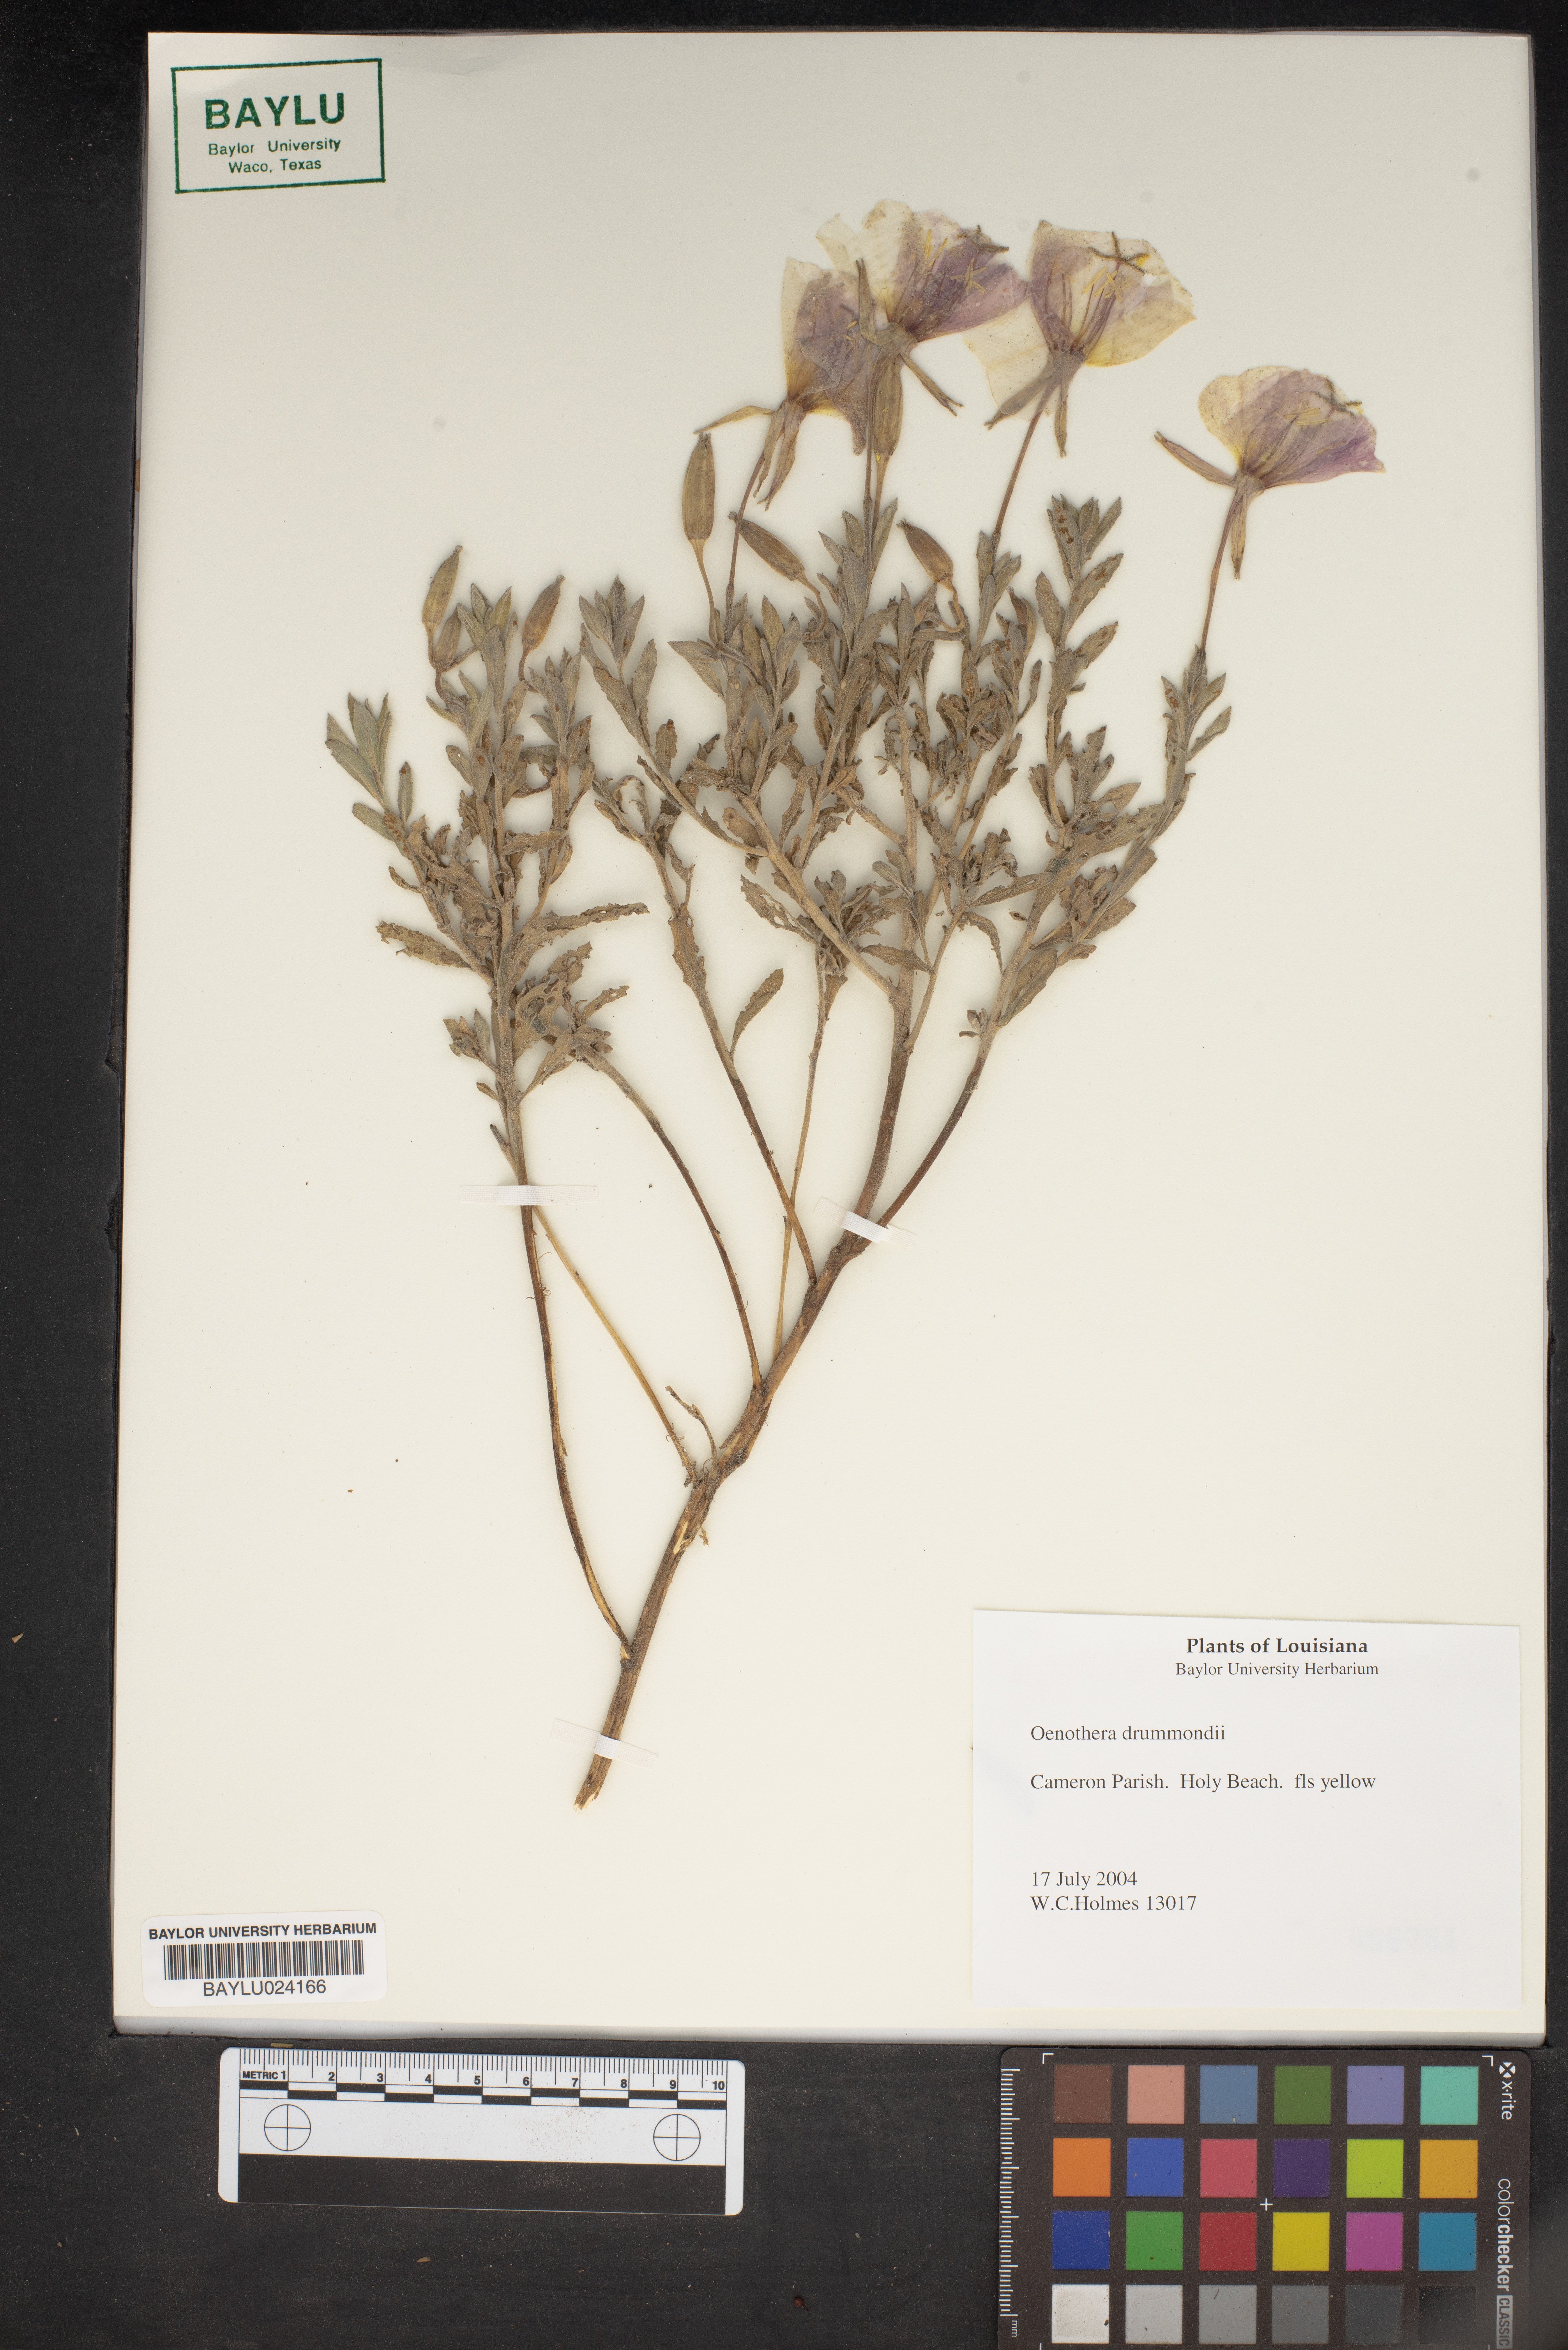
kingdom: Plantae
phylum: Tracheophyta
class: Magnoliopsida
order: Myrtales
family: Onagraceae
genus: Oenothera
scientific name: Oenothera drummondii
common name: Beach evening-primrose
